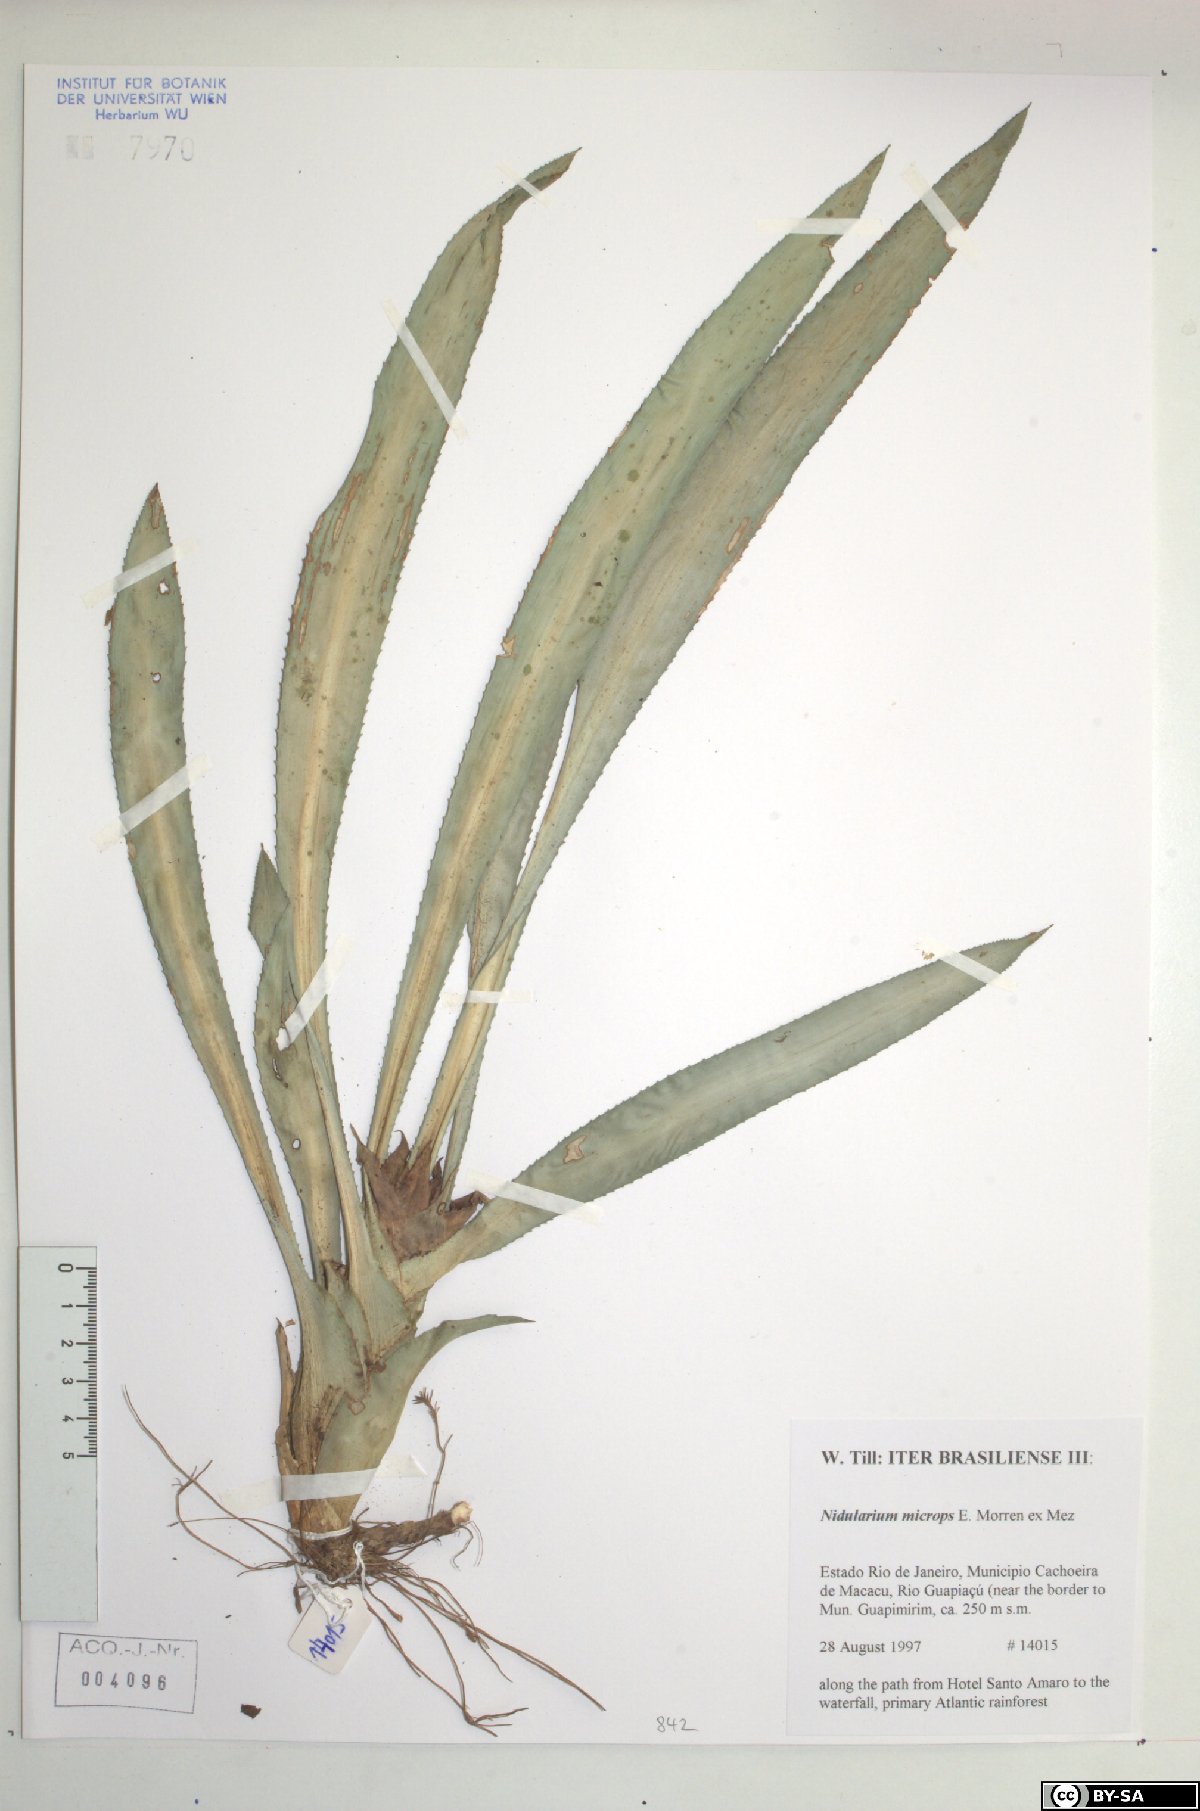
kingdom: Plantae
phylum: Tracheophyta
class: Liliopsida
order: Poales
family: Bromeliaceae
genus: Canistropsis
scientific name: Canistropsis microps
